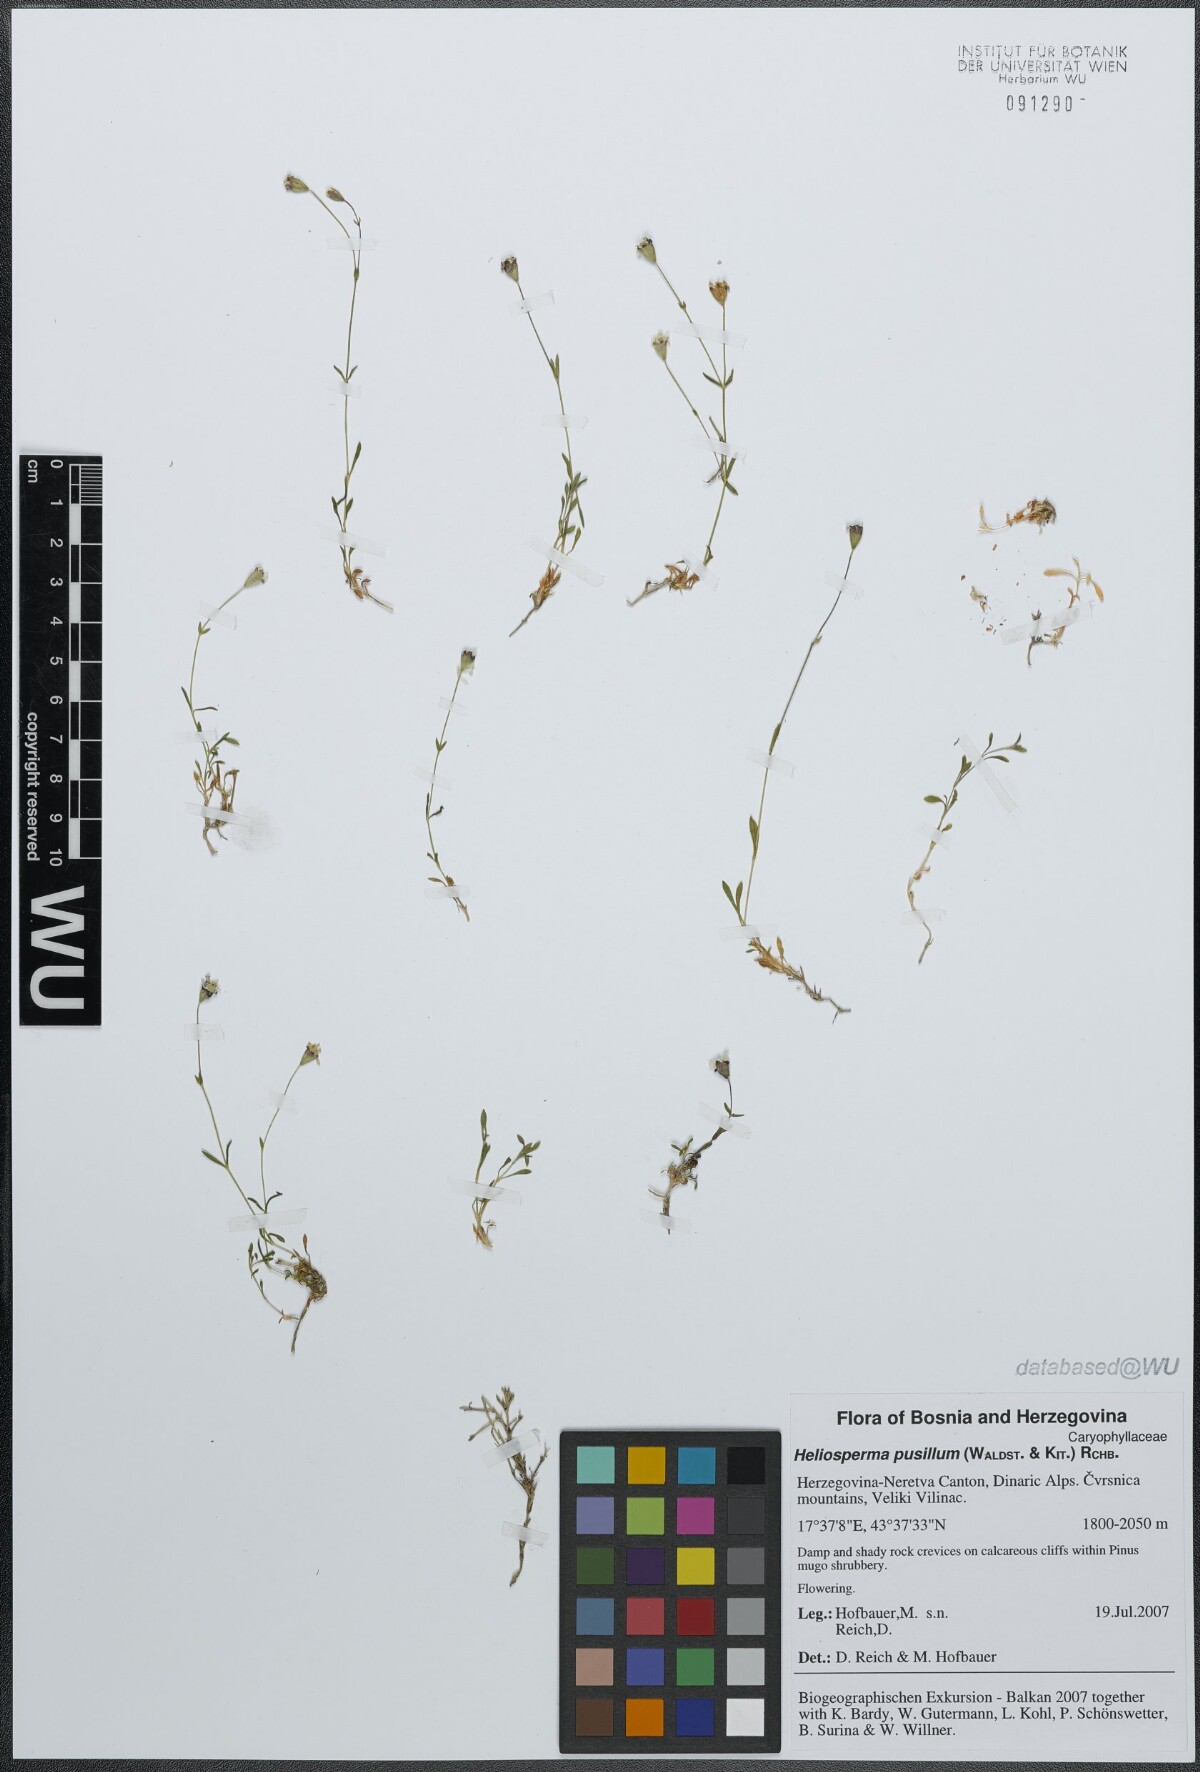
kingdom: Plantae
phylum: Tracheophyta
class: Magnoliopsida
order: Caryophyllales
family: Caryophyllaceae
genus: Heliosperma
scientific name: Heliosperma pusillum
